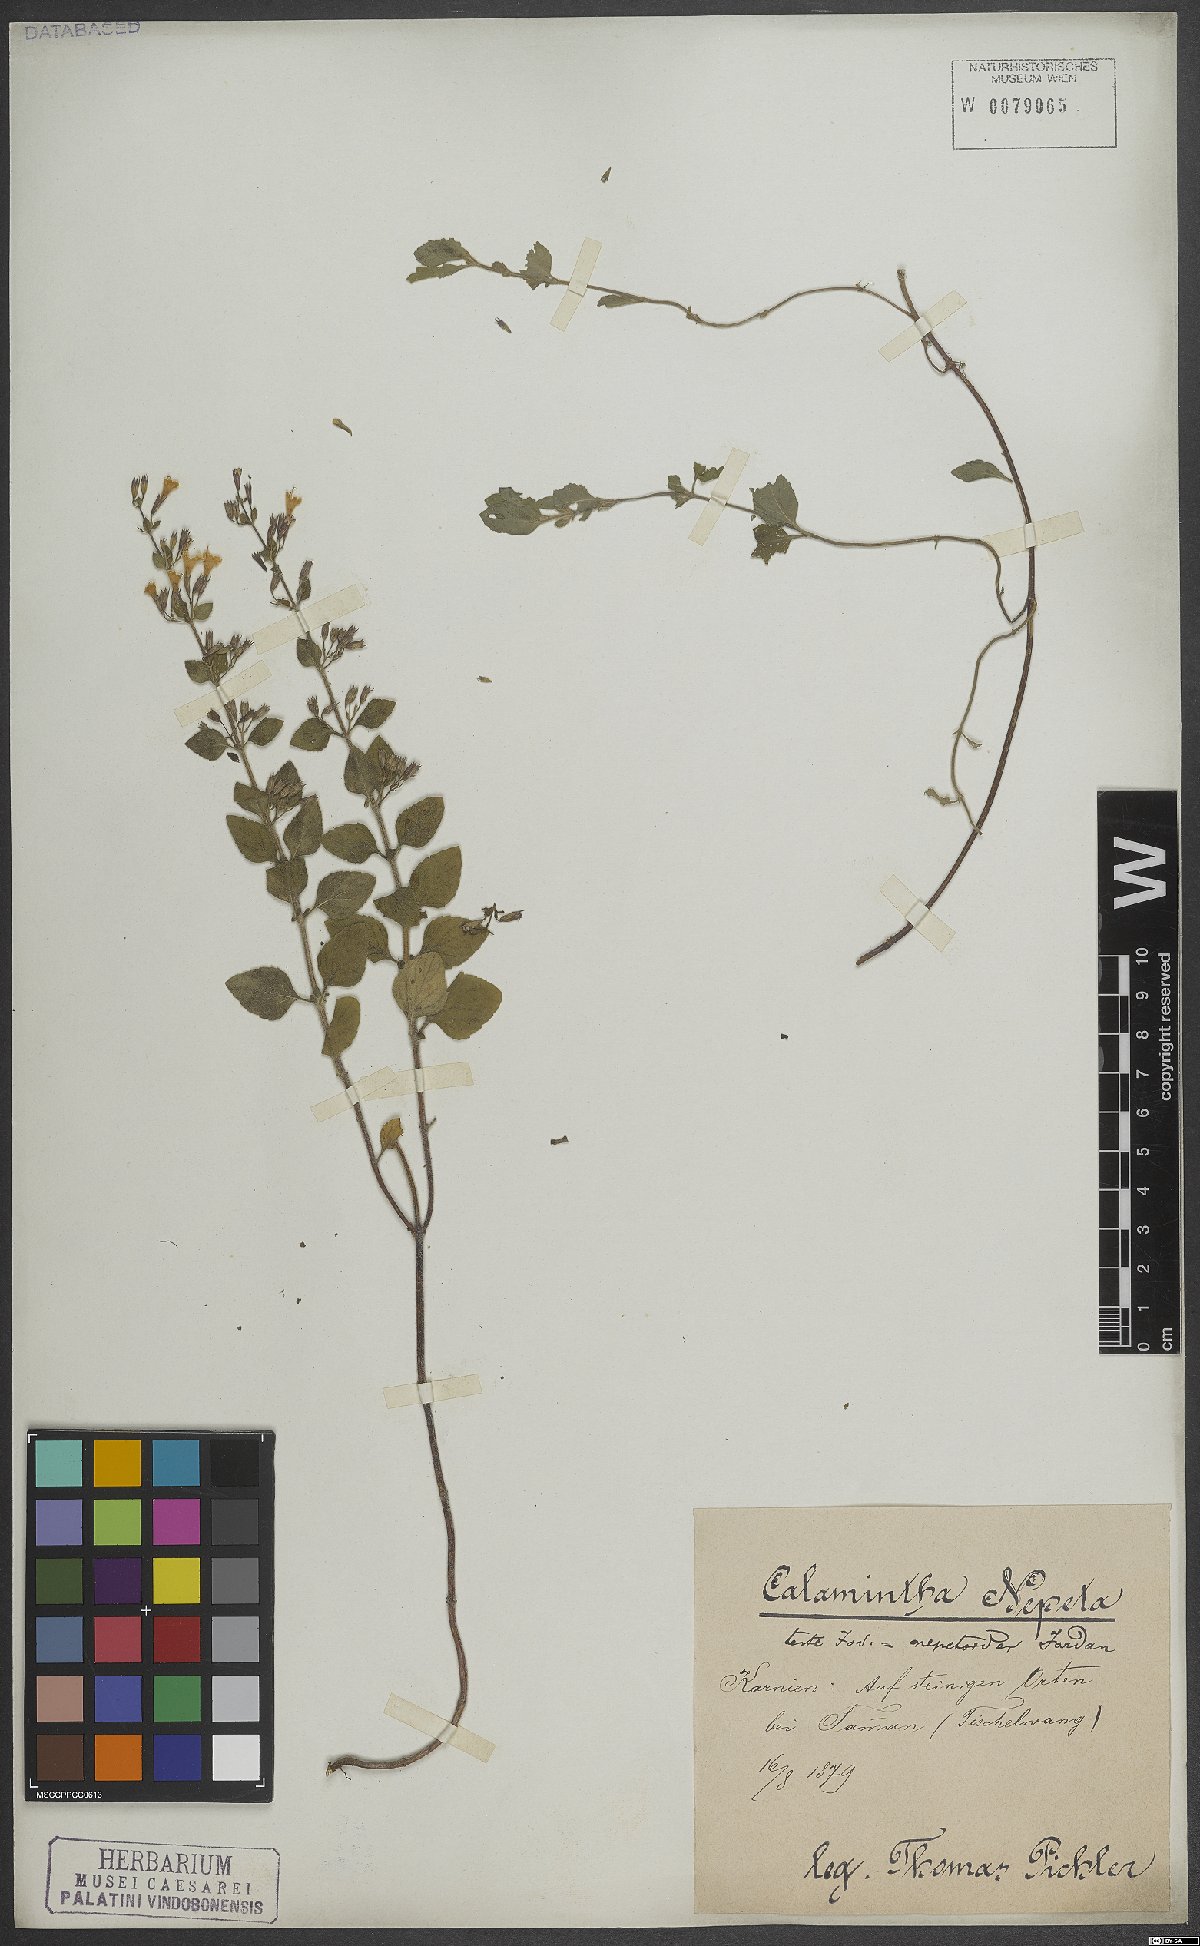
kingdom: Plantae
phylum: Tracheophyta
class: Magnoliopsida
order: Lamiales
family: Lamiaceae
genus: Clinopodium
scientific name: Clinopodium nepeta
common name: Lesser calamint
